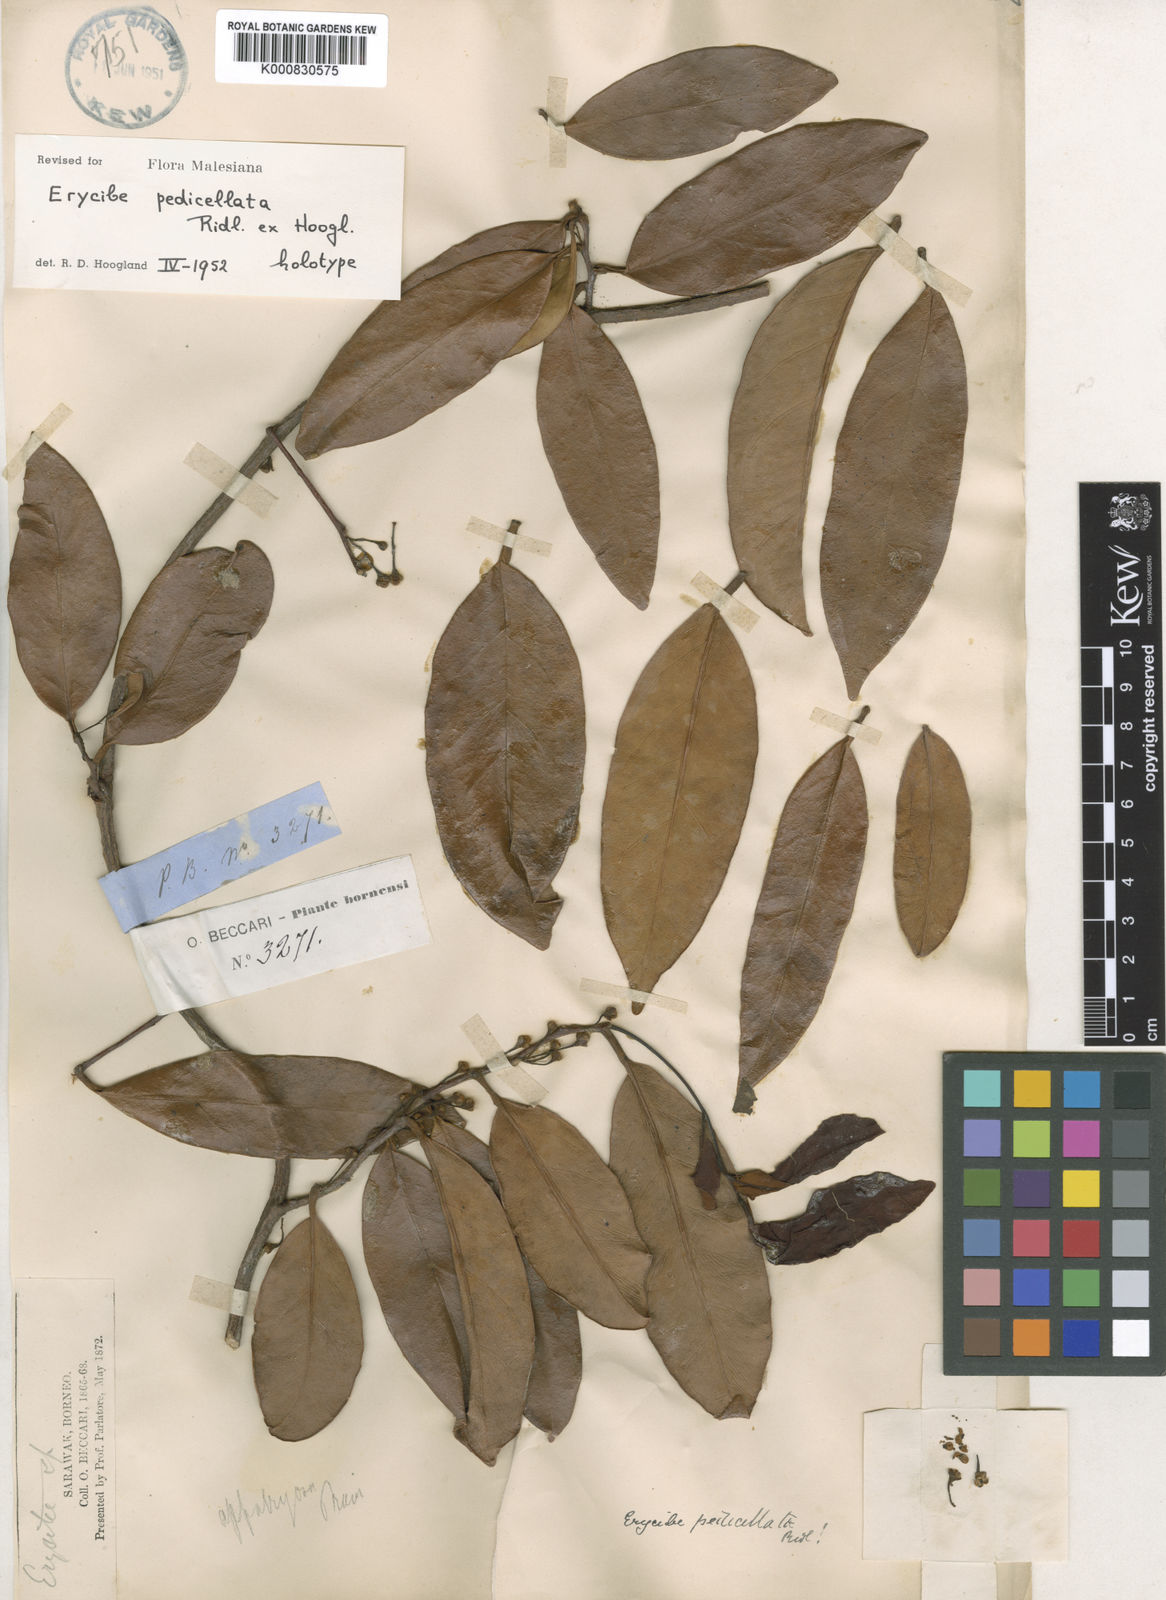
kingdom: Plantae
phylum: Tracheophyta
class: Magnoliopsida
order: Solanales
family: Convolvulaceae
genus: Erycibe
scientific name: Erycibe pedicellata
